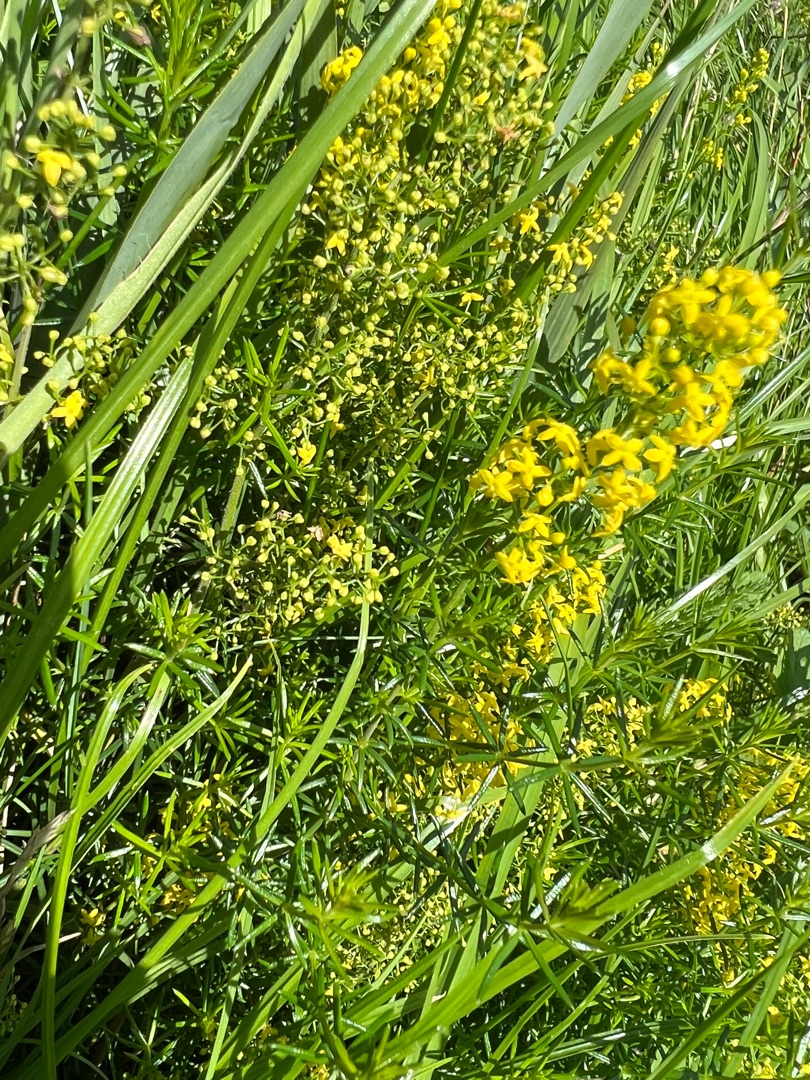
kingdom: Plantae
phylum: Tracheophyta
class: Magnoliopsida
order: Gentianales
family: Rubiaceae
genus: Galium
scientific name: Galium verum
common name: Gul snerre
